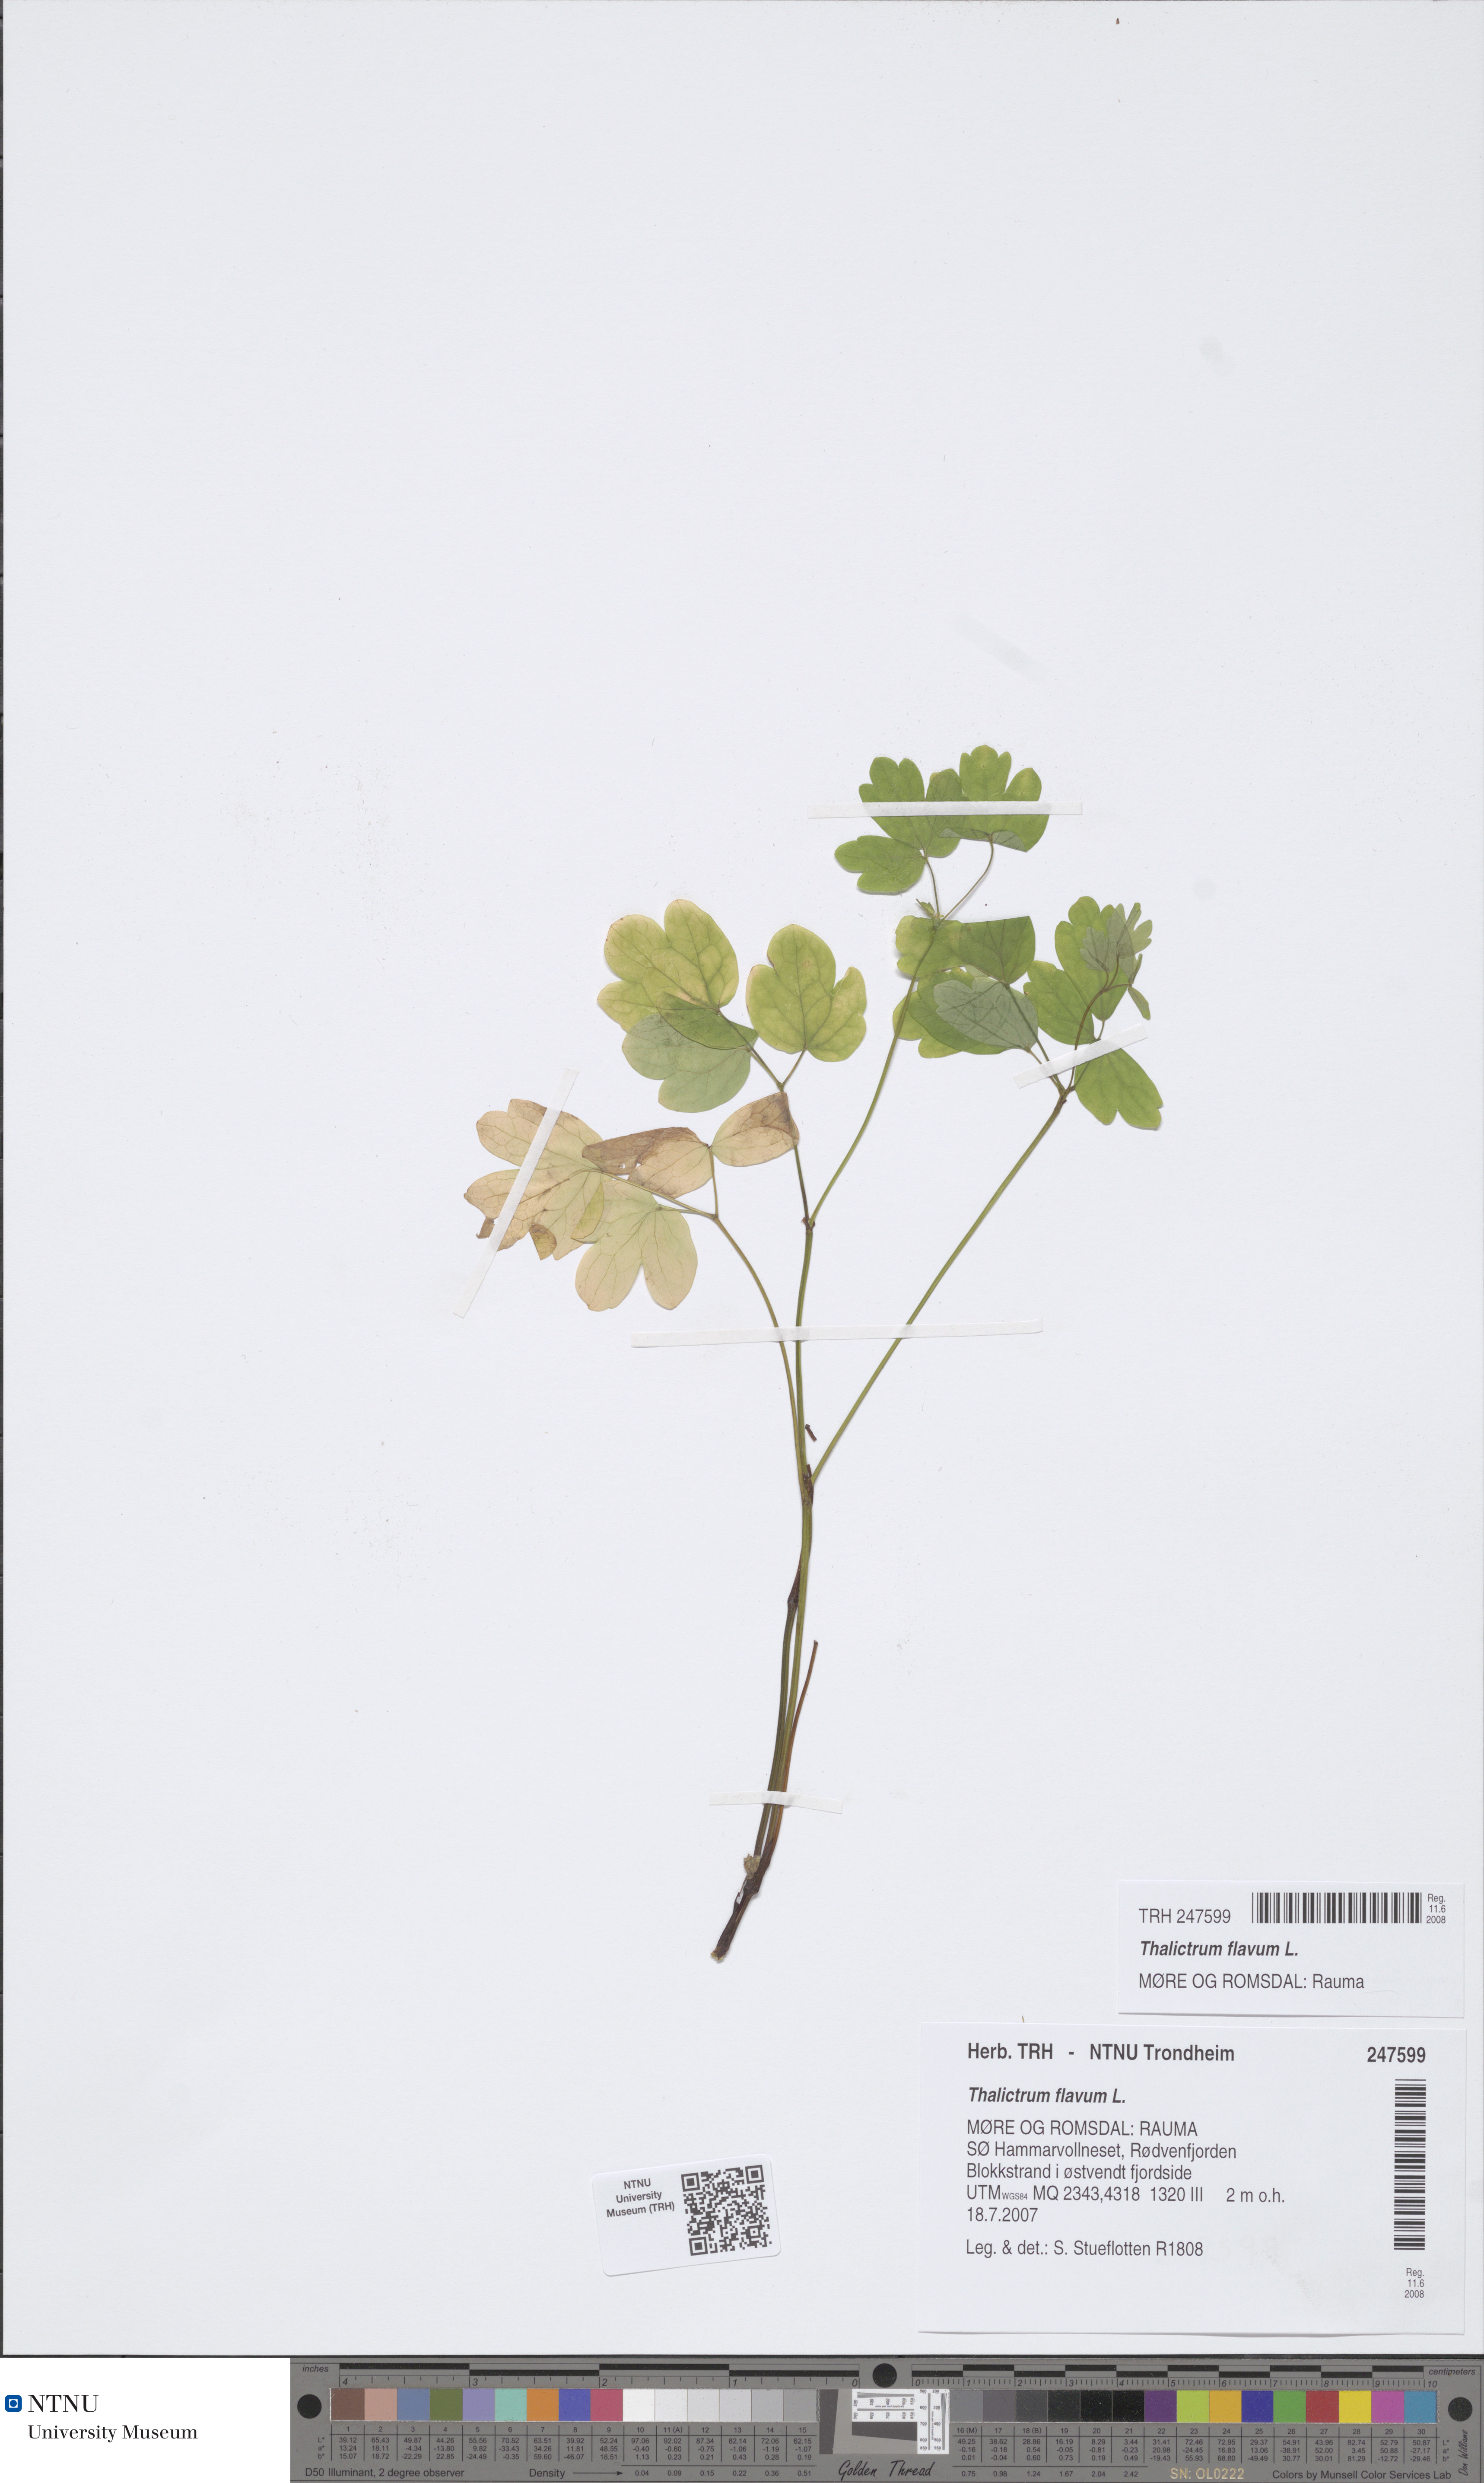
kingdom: Plantae
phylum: Tracheophyta
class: Magnoliopsida
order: Ranunculales
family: Ranunculaceae
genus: Thalictrum
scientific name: Thalictrum flavum
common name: Common meadow-rue
